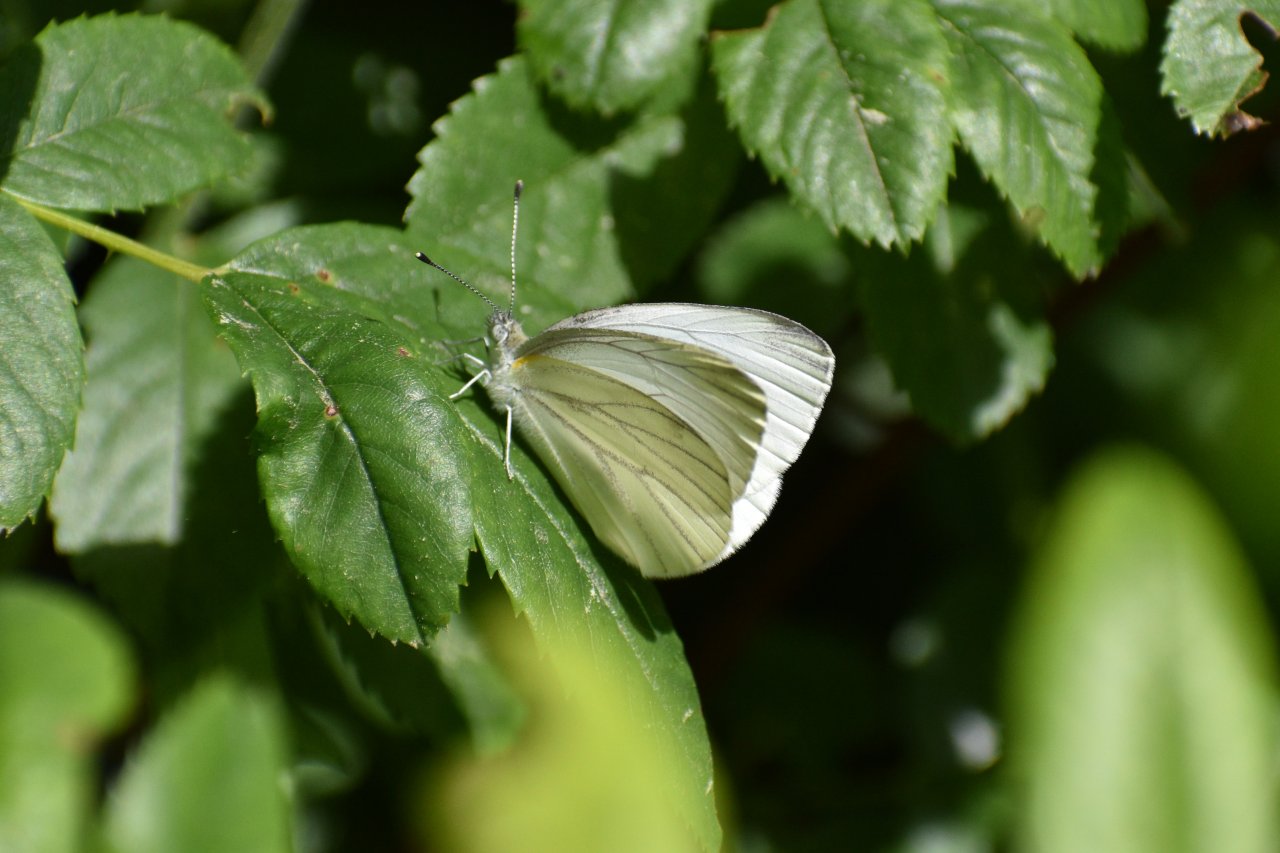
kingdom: Animalia
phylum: Arthropoda
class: Insecta
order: Lepidoptera
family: Pieridae
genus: Pieris
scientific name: Pieris oleracea
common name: Mustard White
